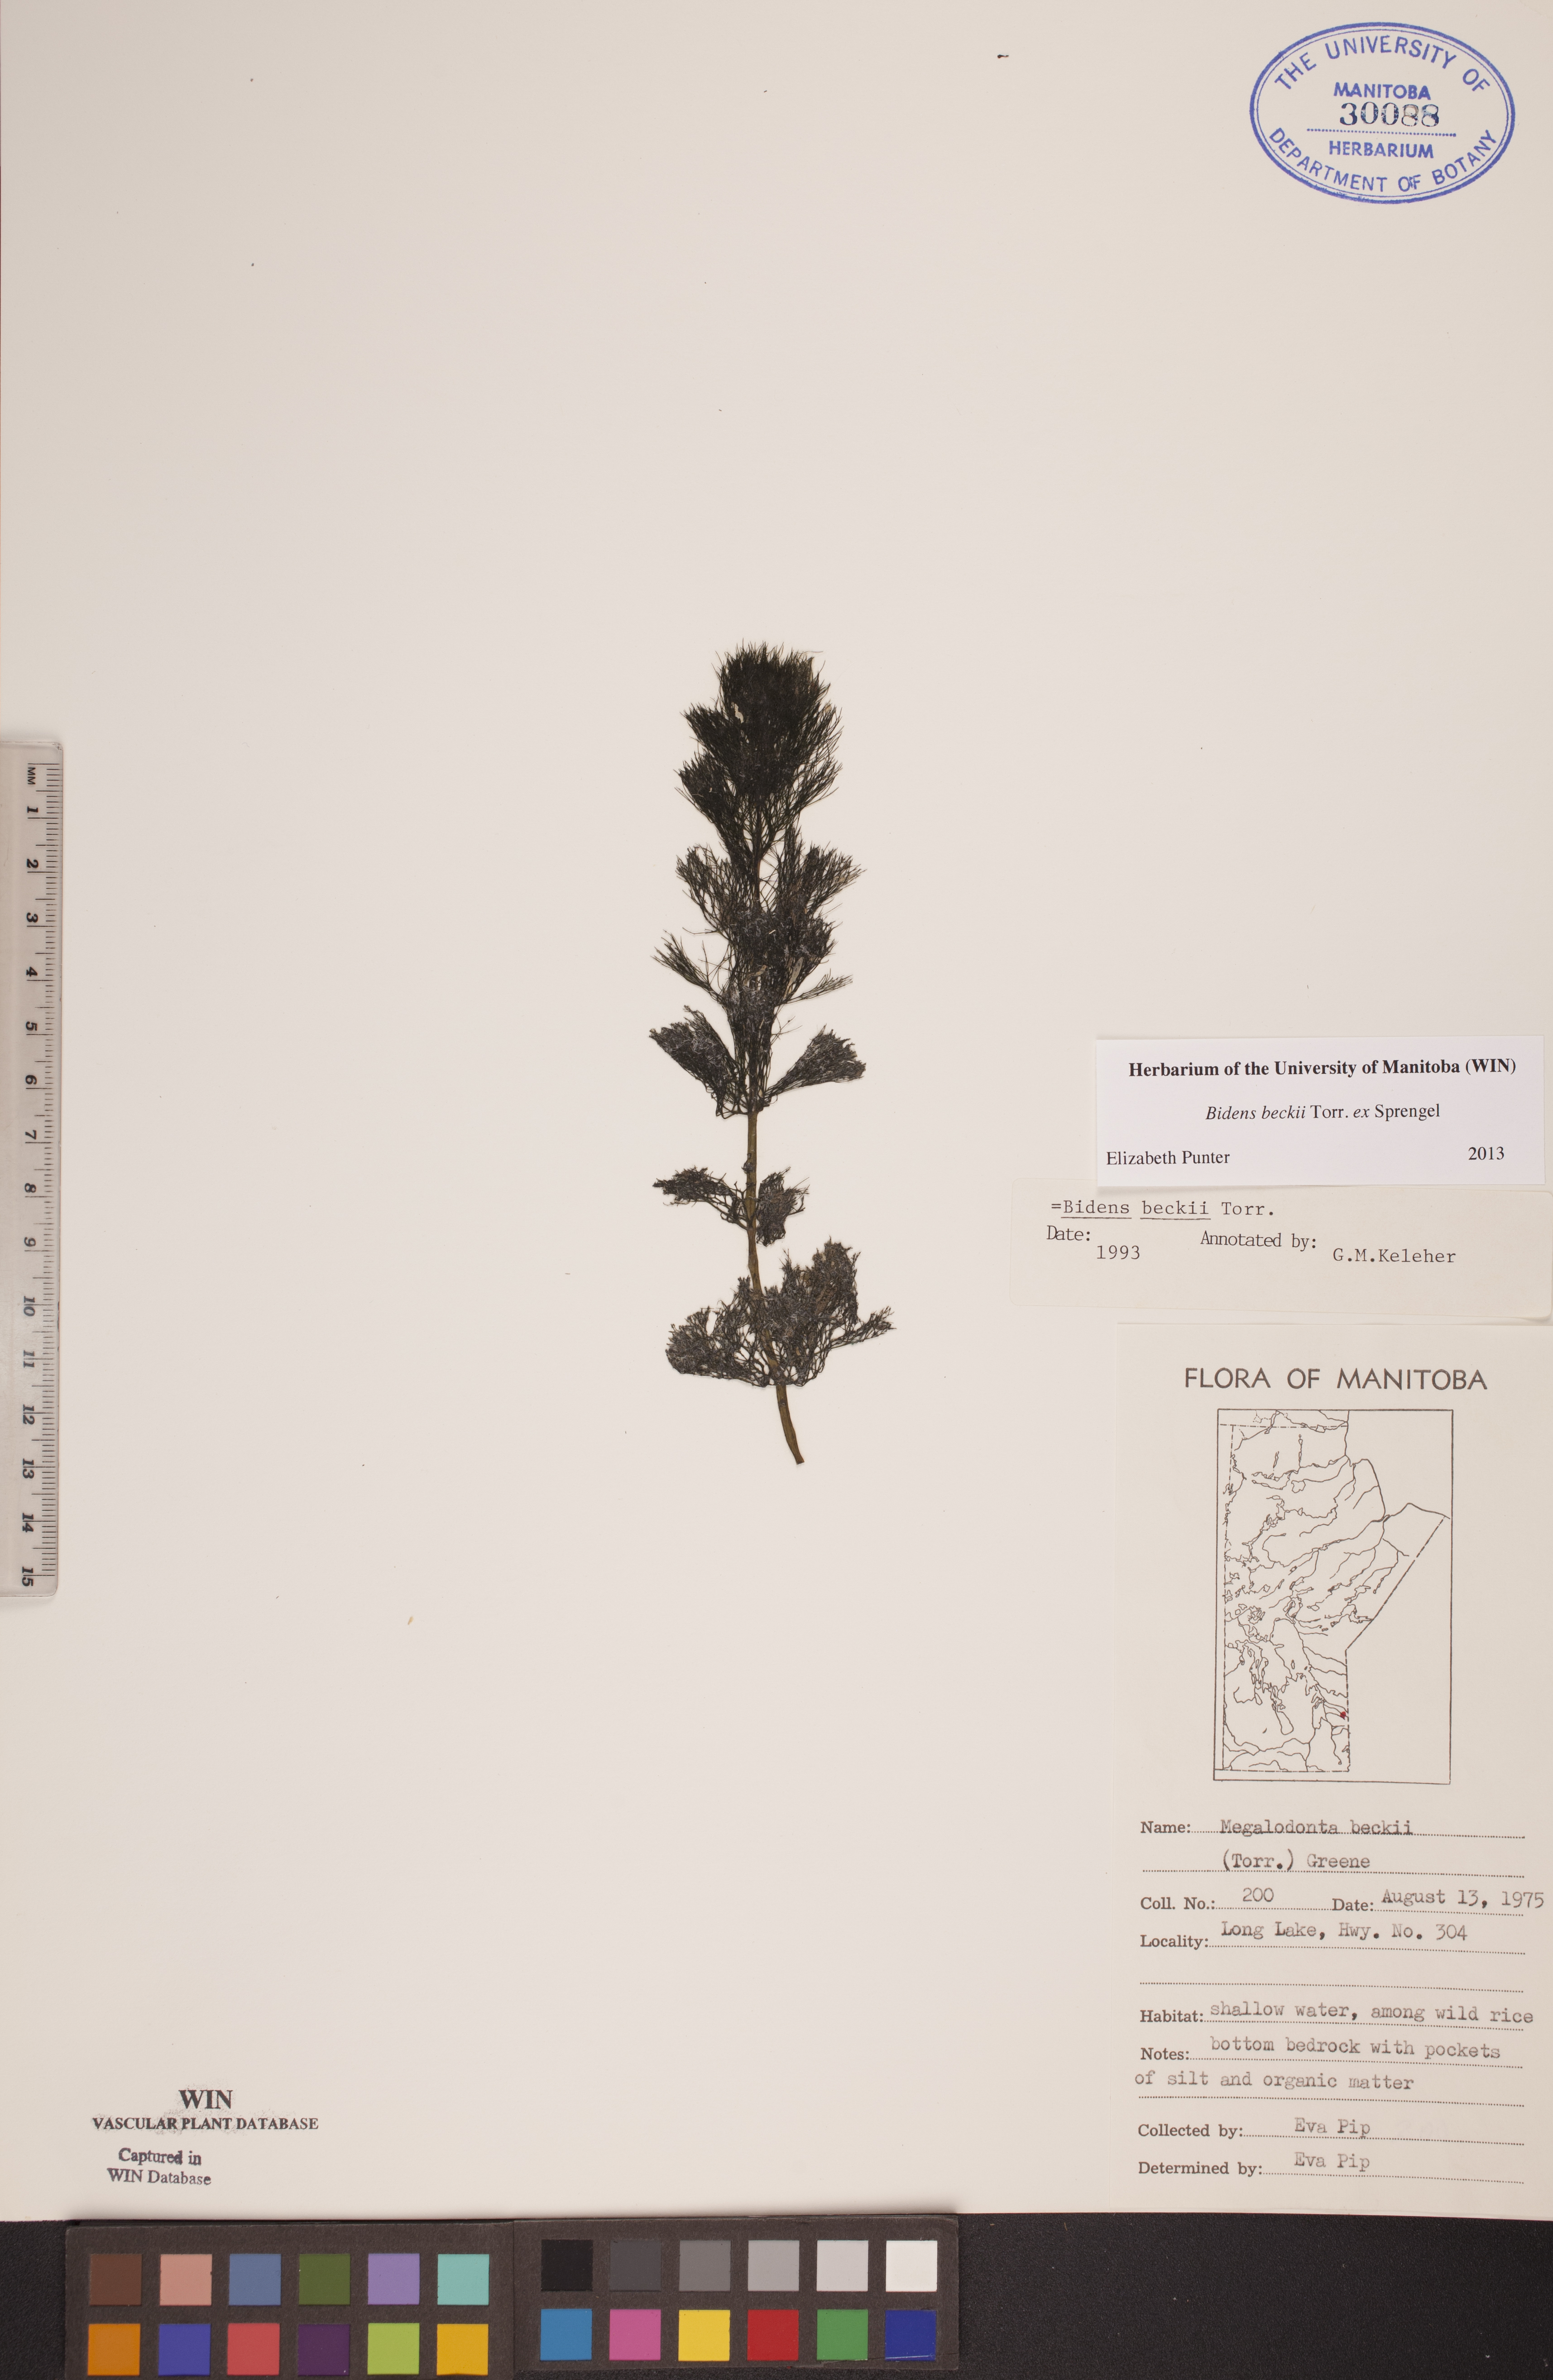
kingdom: Plantae
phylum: Tracheophyta
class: Magnoliopsida
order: Asterales
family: Asteraceae
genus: Bidens
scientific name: Bidens beckii
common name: Beck's beggarticks
